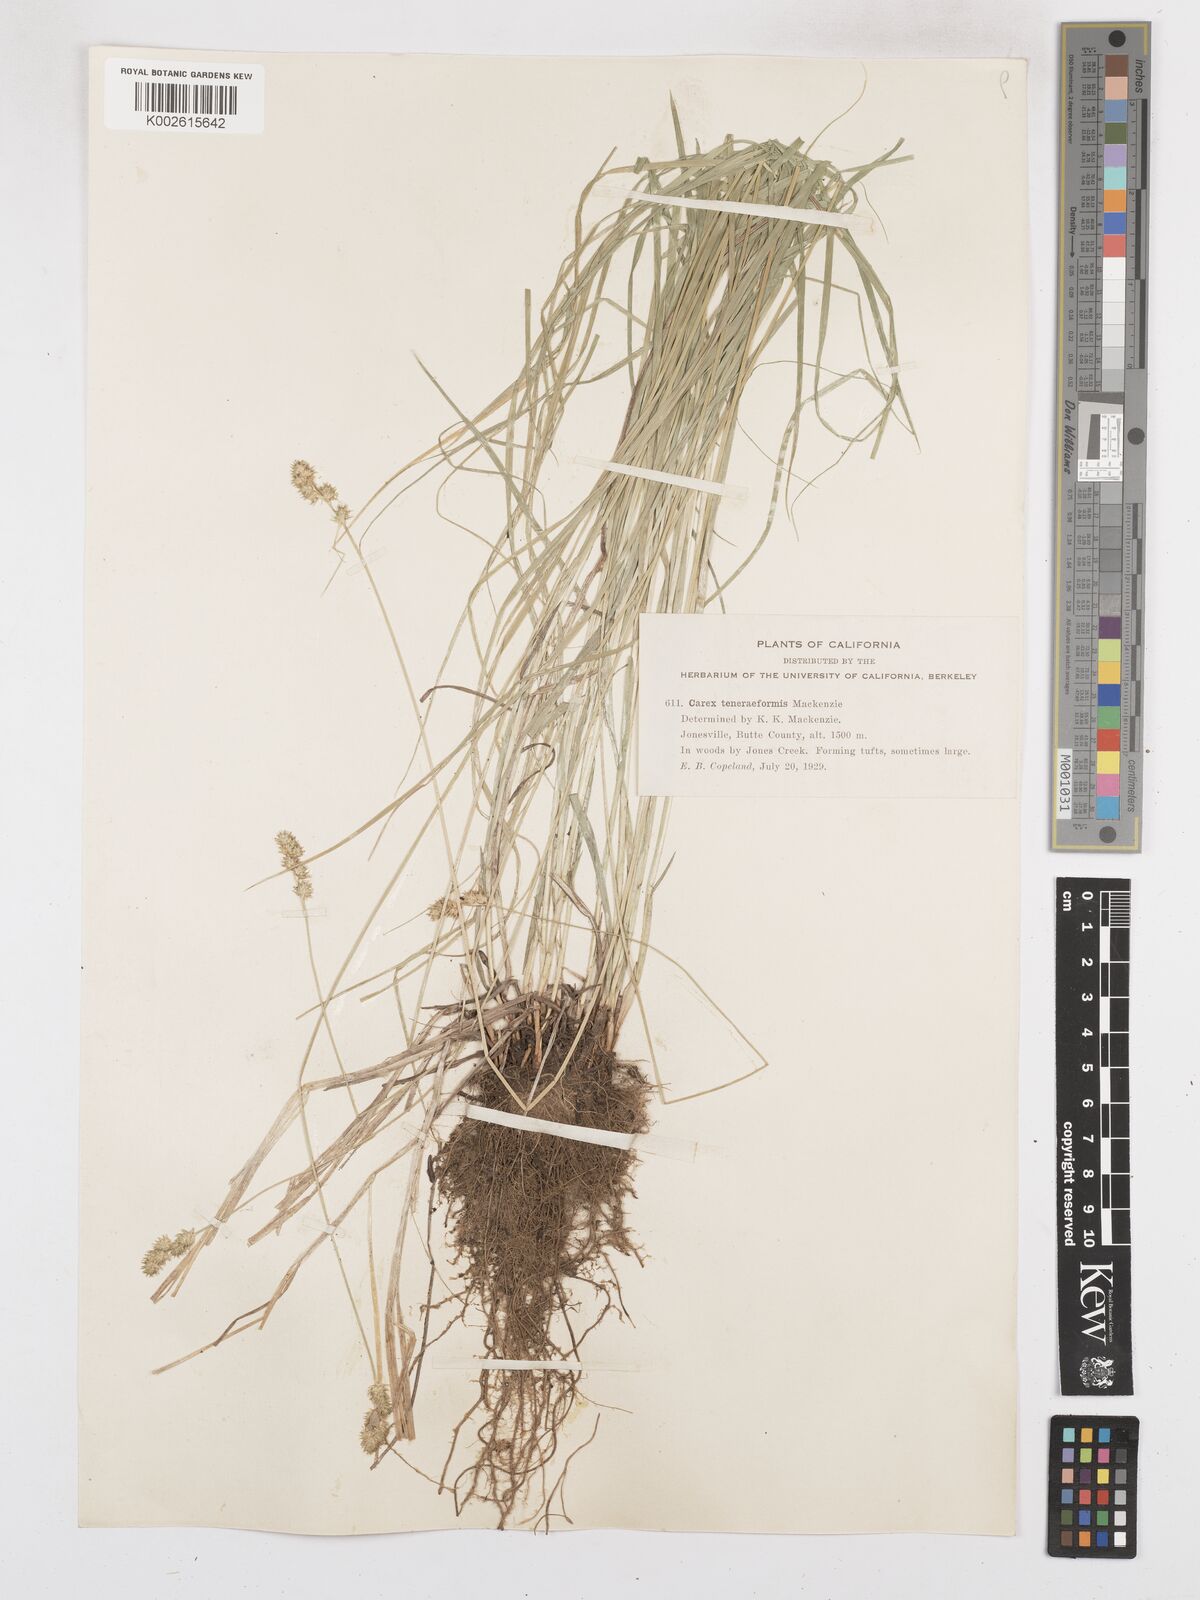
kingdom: Plantae
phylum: Tracheophyta
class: Liliopsida
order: Poales
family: Cyperaceae
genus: Carex
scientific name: Carex subfusca
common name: Brown sedge
